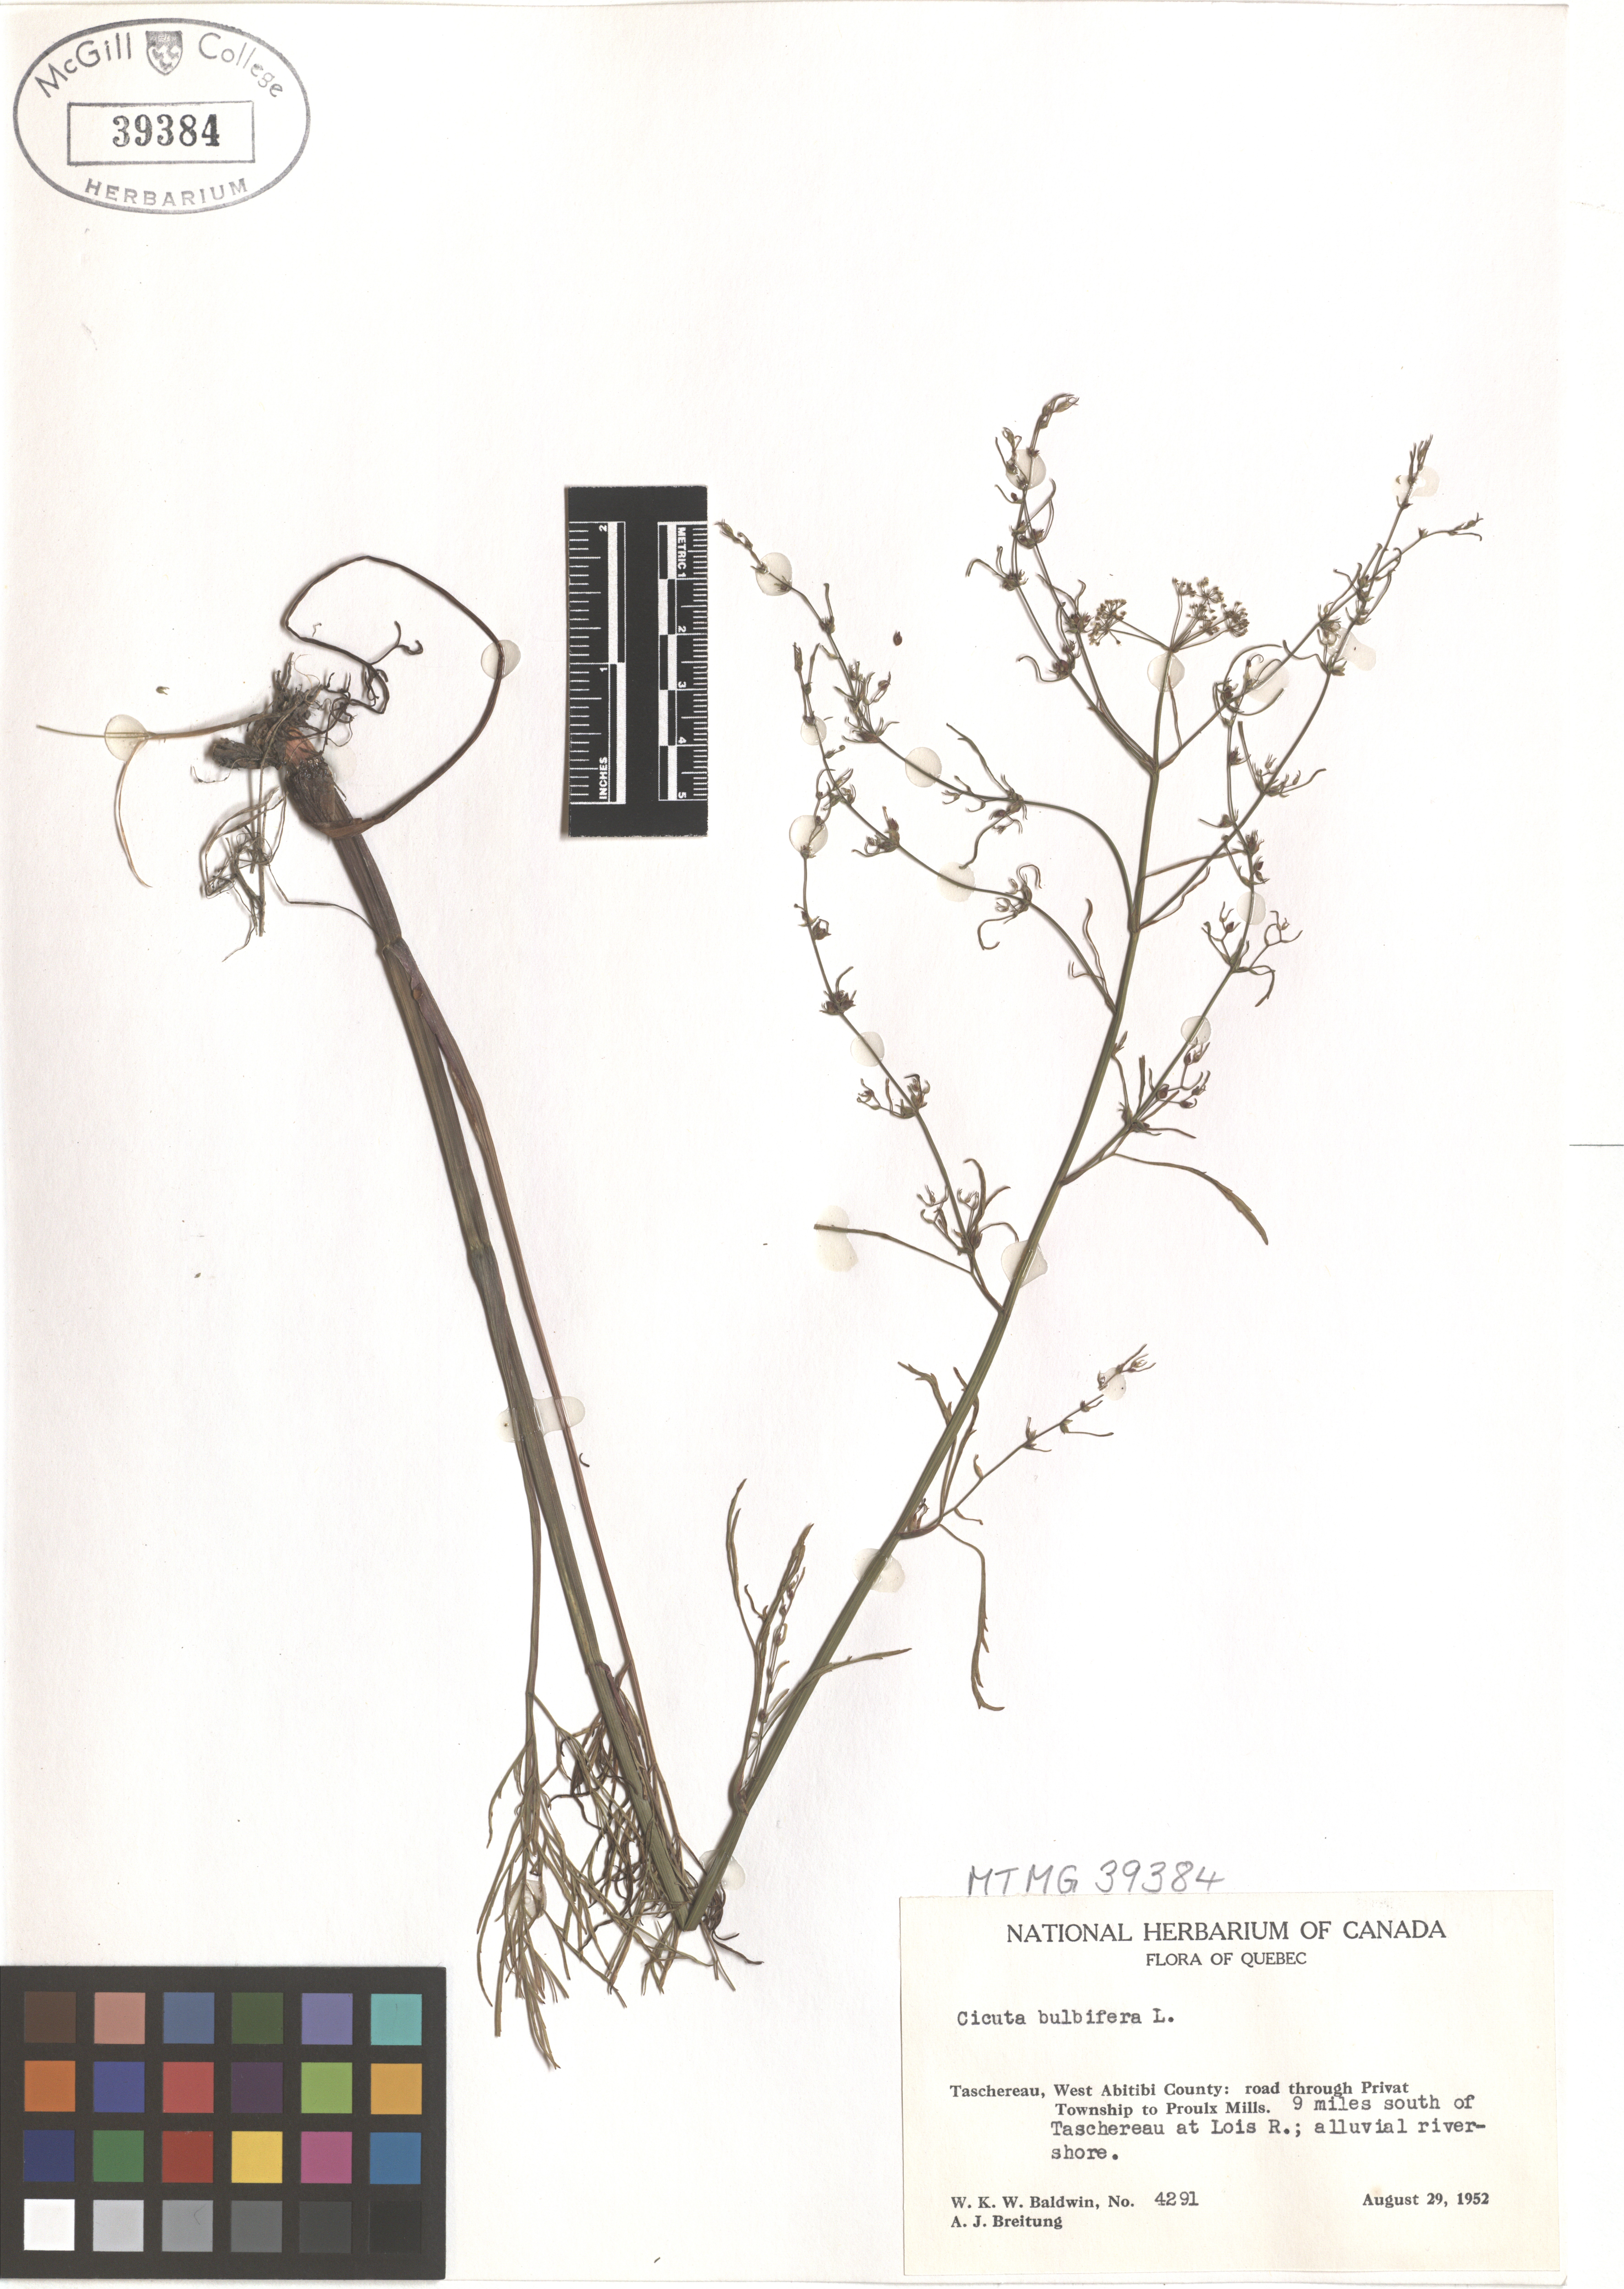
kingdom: Plantae
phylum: Tracheophyta
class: Magnoliopsida
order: Apiales
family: Apiaceae
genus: Cicuta
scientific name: Cicuta bulbifera
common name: Bulb-bearing water-hemlock
